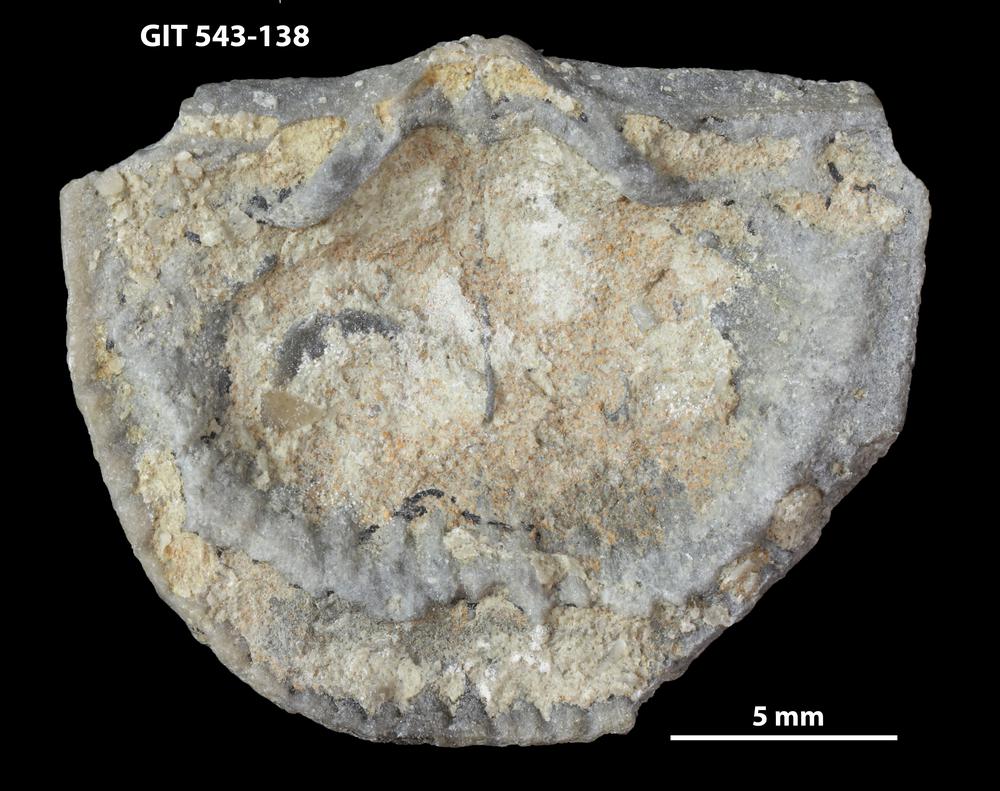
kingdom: Animalia
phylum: Brachiopoda
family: Gonambonitidae
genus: Estlandia
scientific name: Estlandia Orthisina marginata
